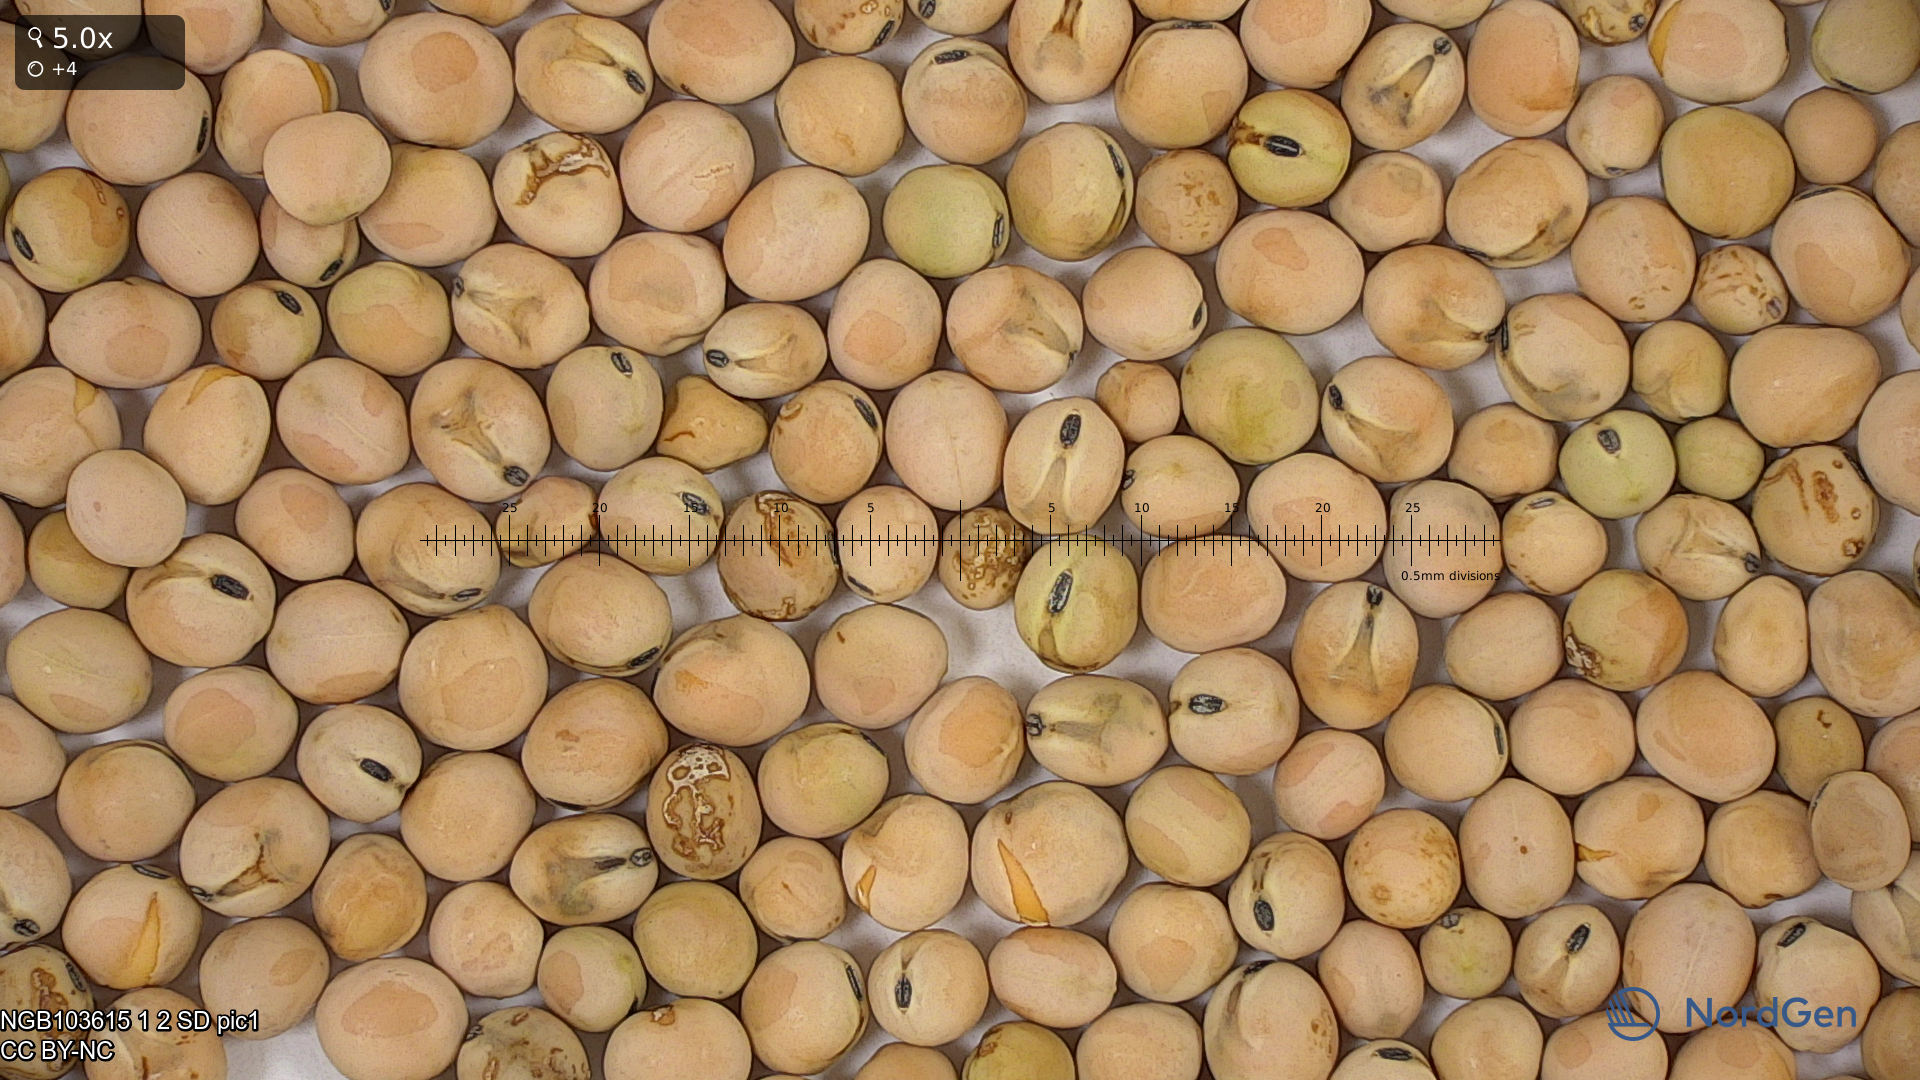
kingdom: Plantae
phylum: Tracheophyta
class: Magnoliopsida
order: Fabales
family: Fabaceae
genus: Lathyrus
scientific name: Lathyrus oleraceus
